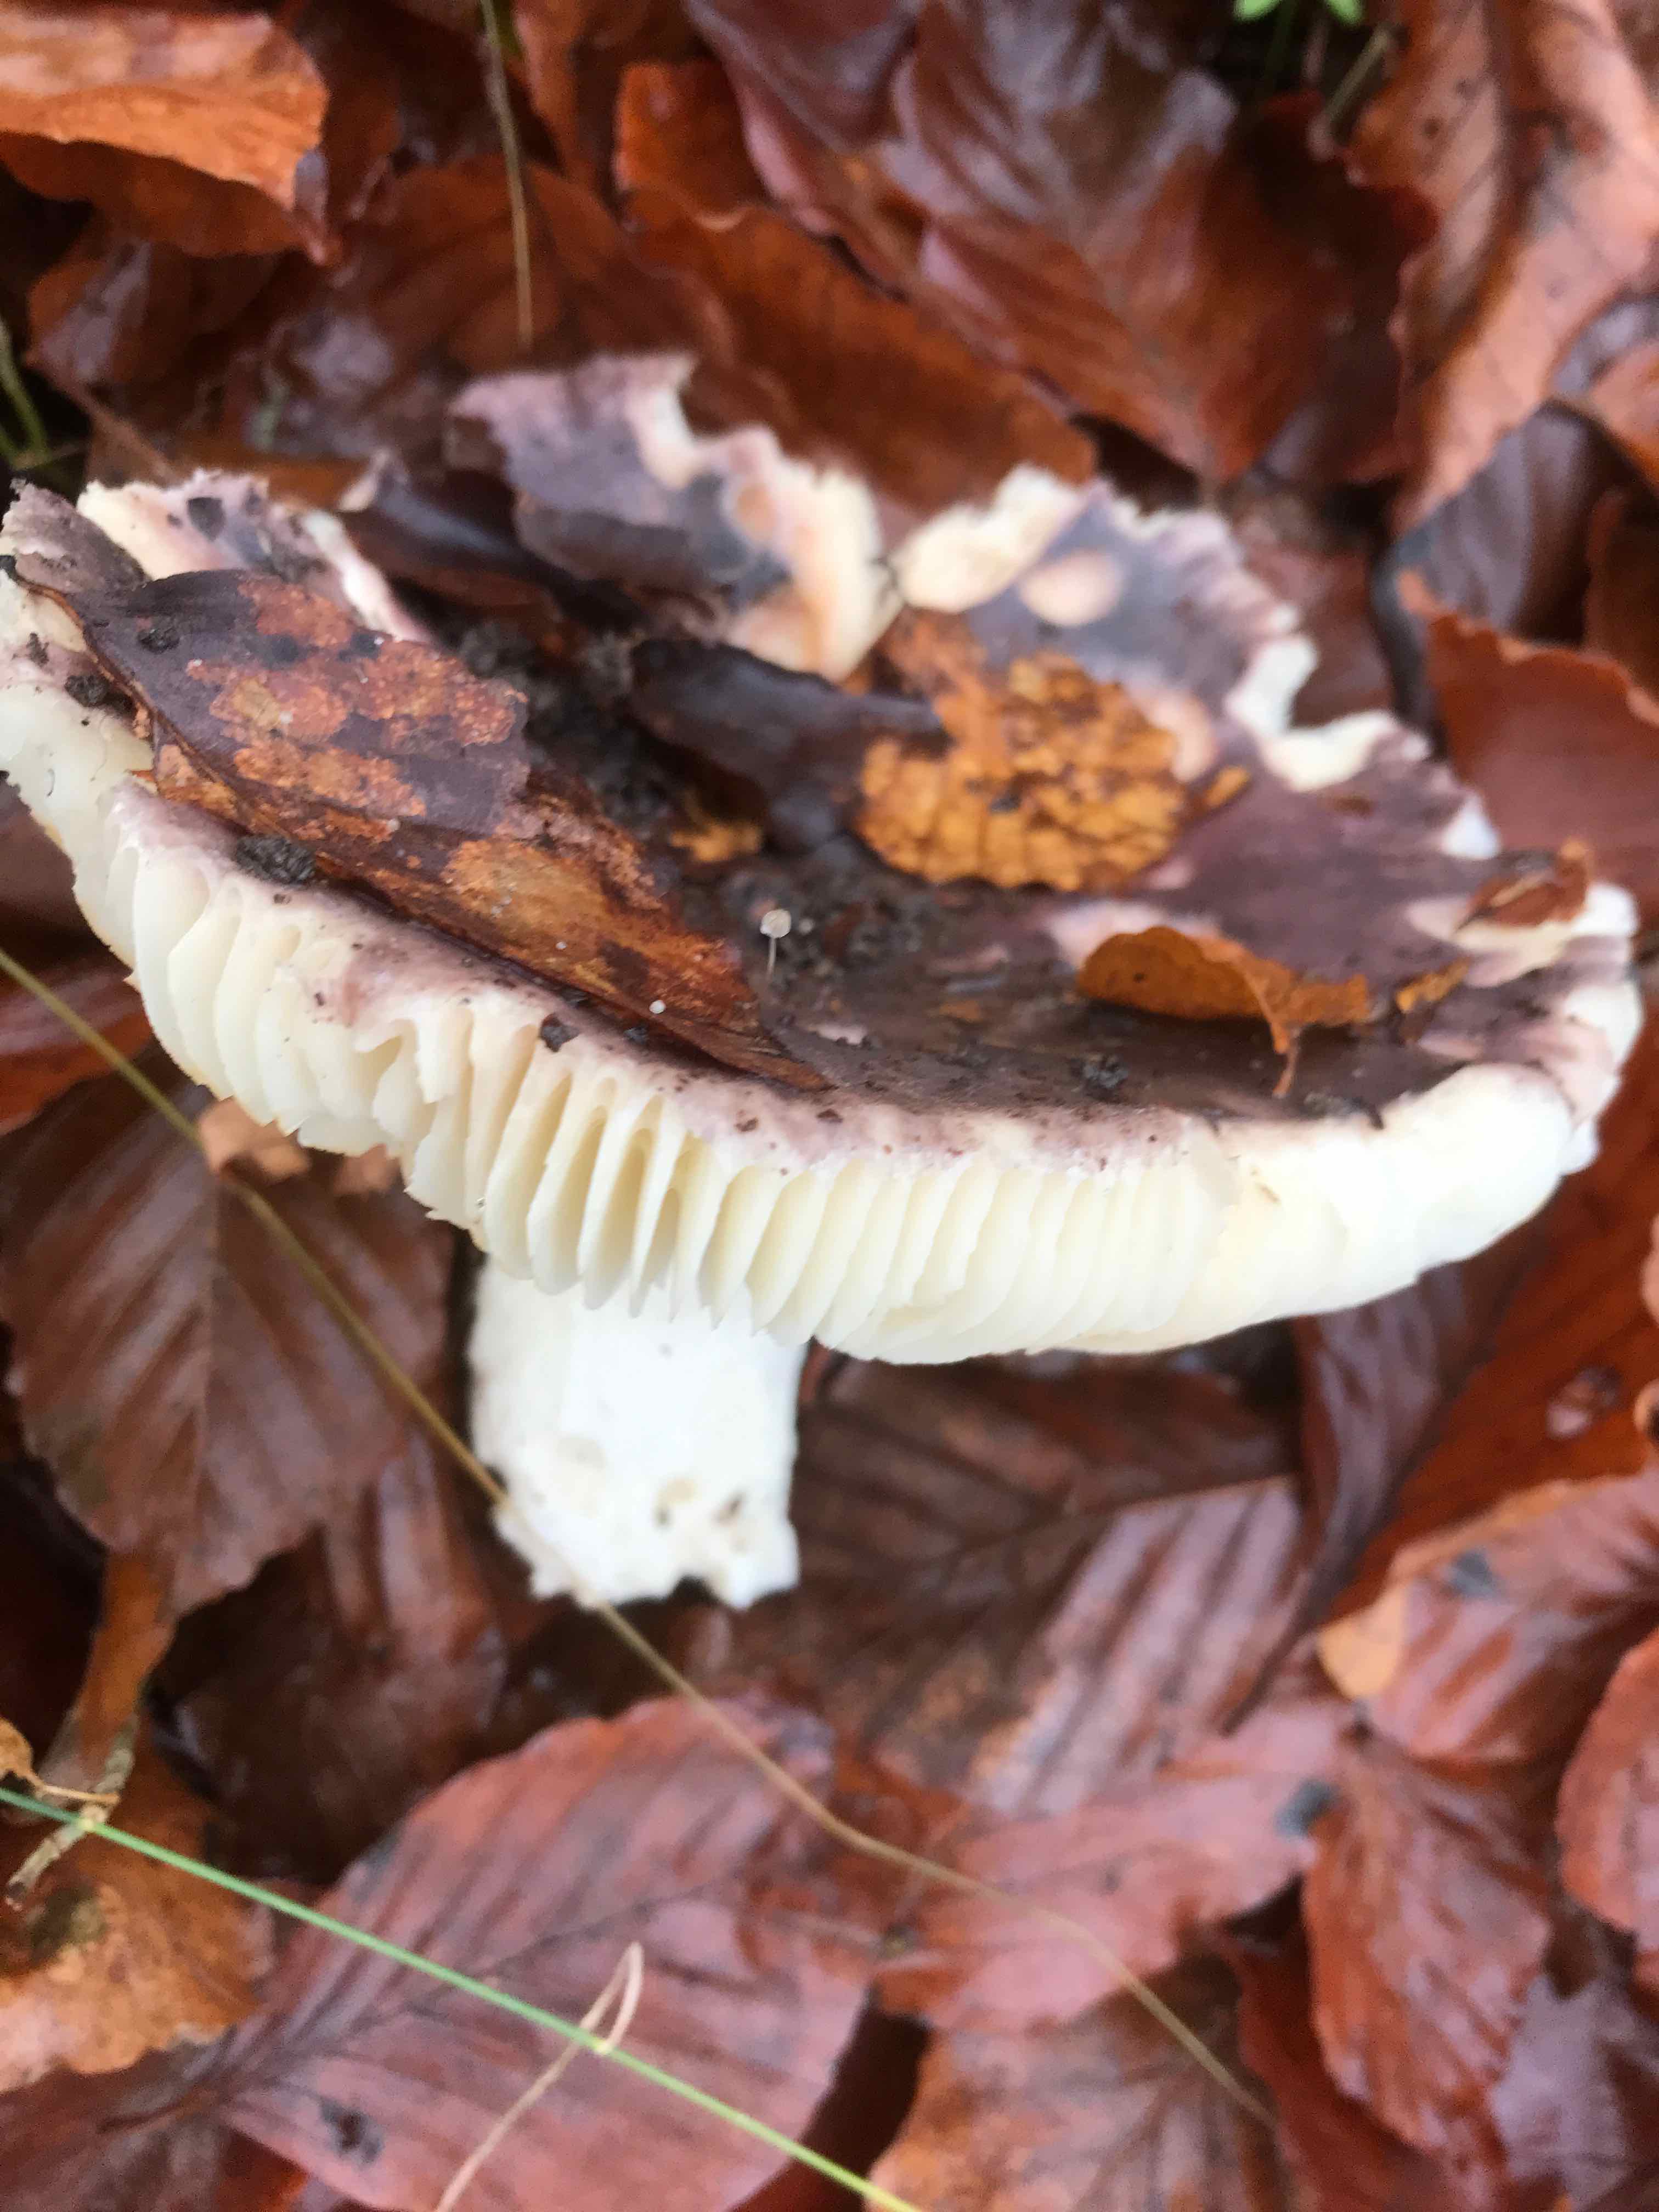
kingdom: Fungi
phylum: Basidiomycota
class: Agaricomycetes
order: Russulales
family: Russulaceae
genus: Russula
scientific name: Russula
